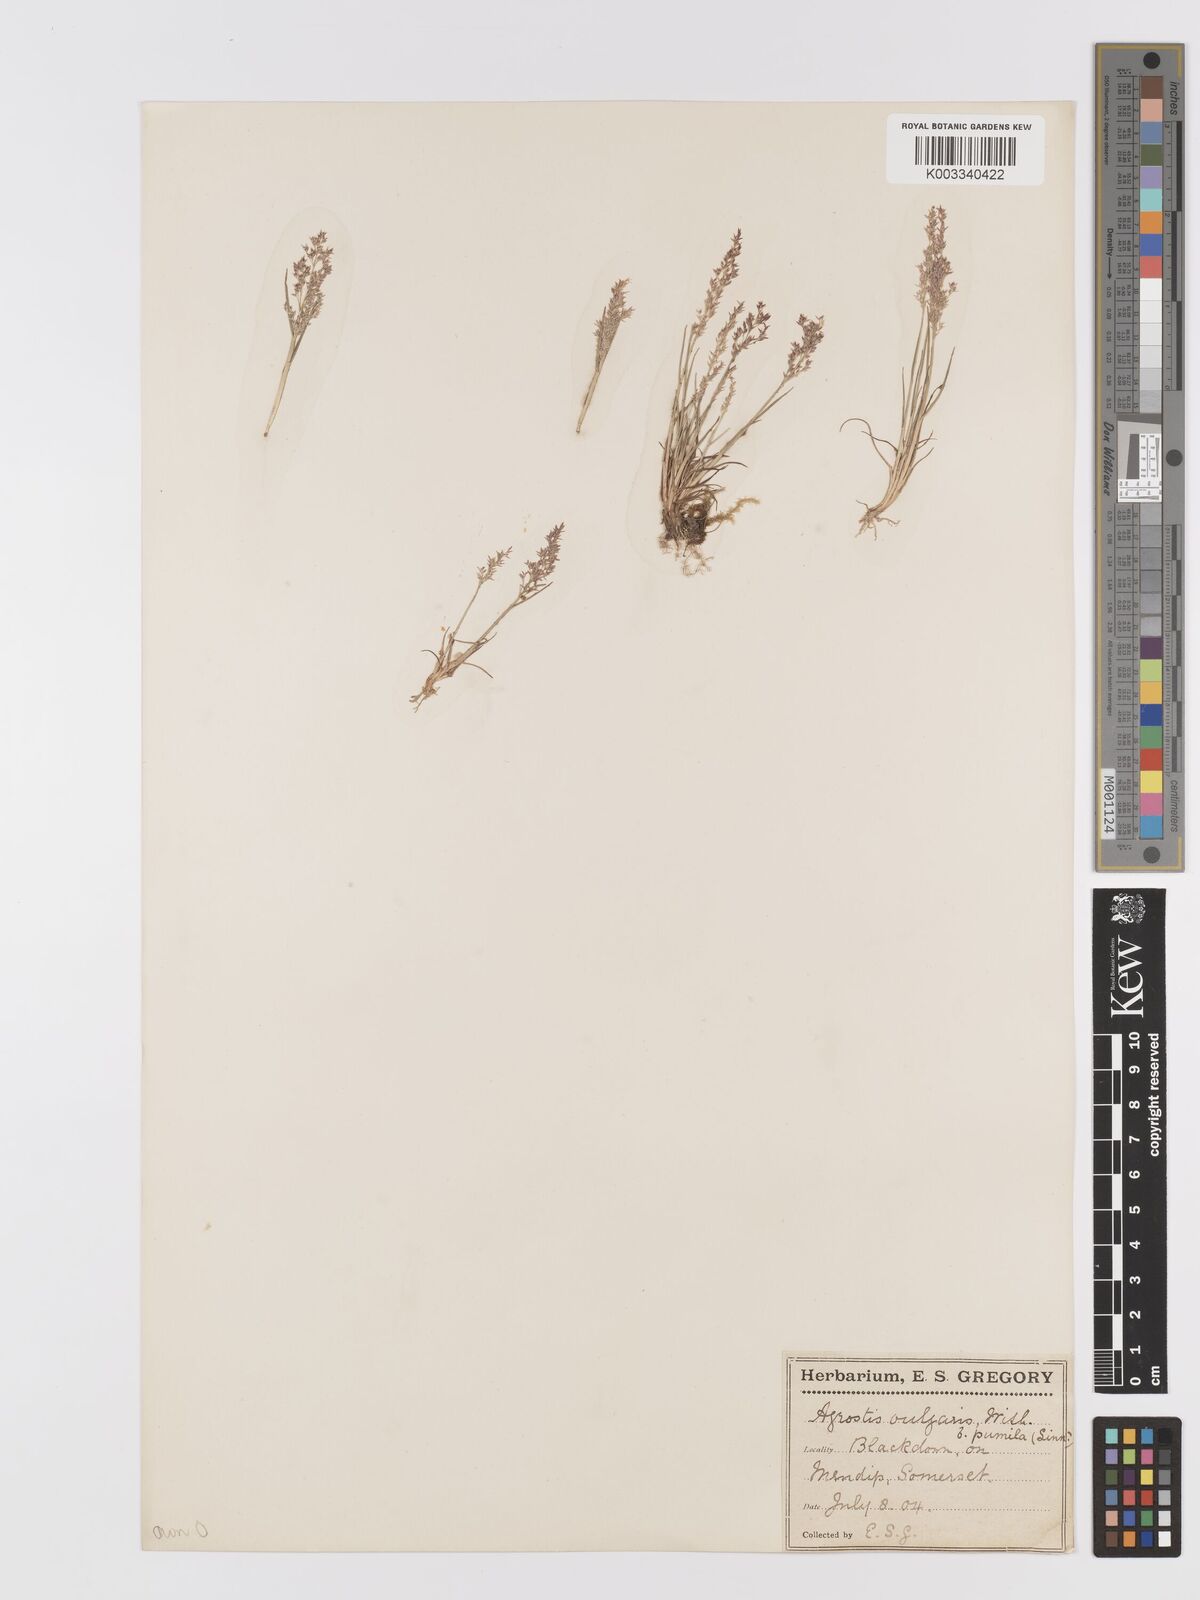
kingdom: Plantae
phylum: Tracheophyta
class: Liliopsida
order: Poales
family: Poaceae
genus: Agrostis
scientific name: Agrostis capillaris
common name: Colonial bentgrass
